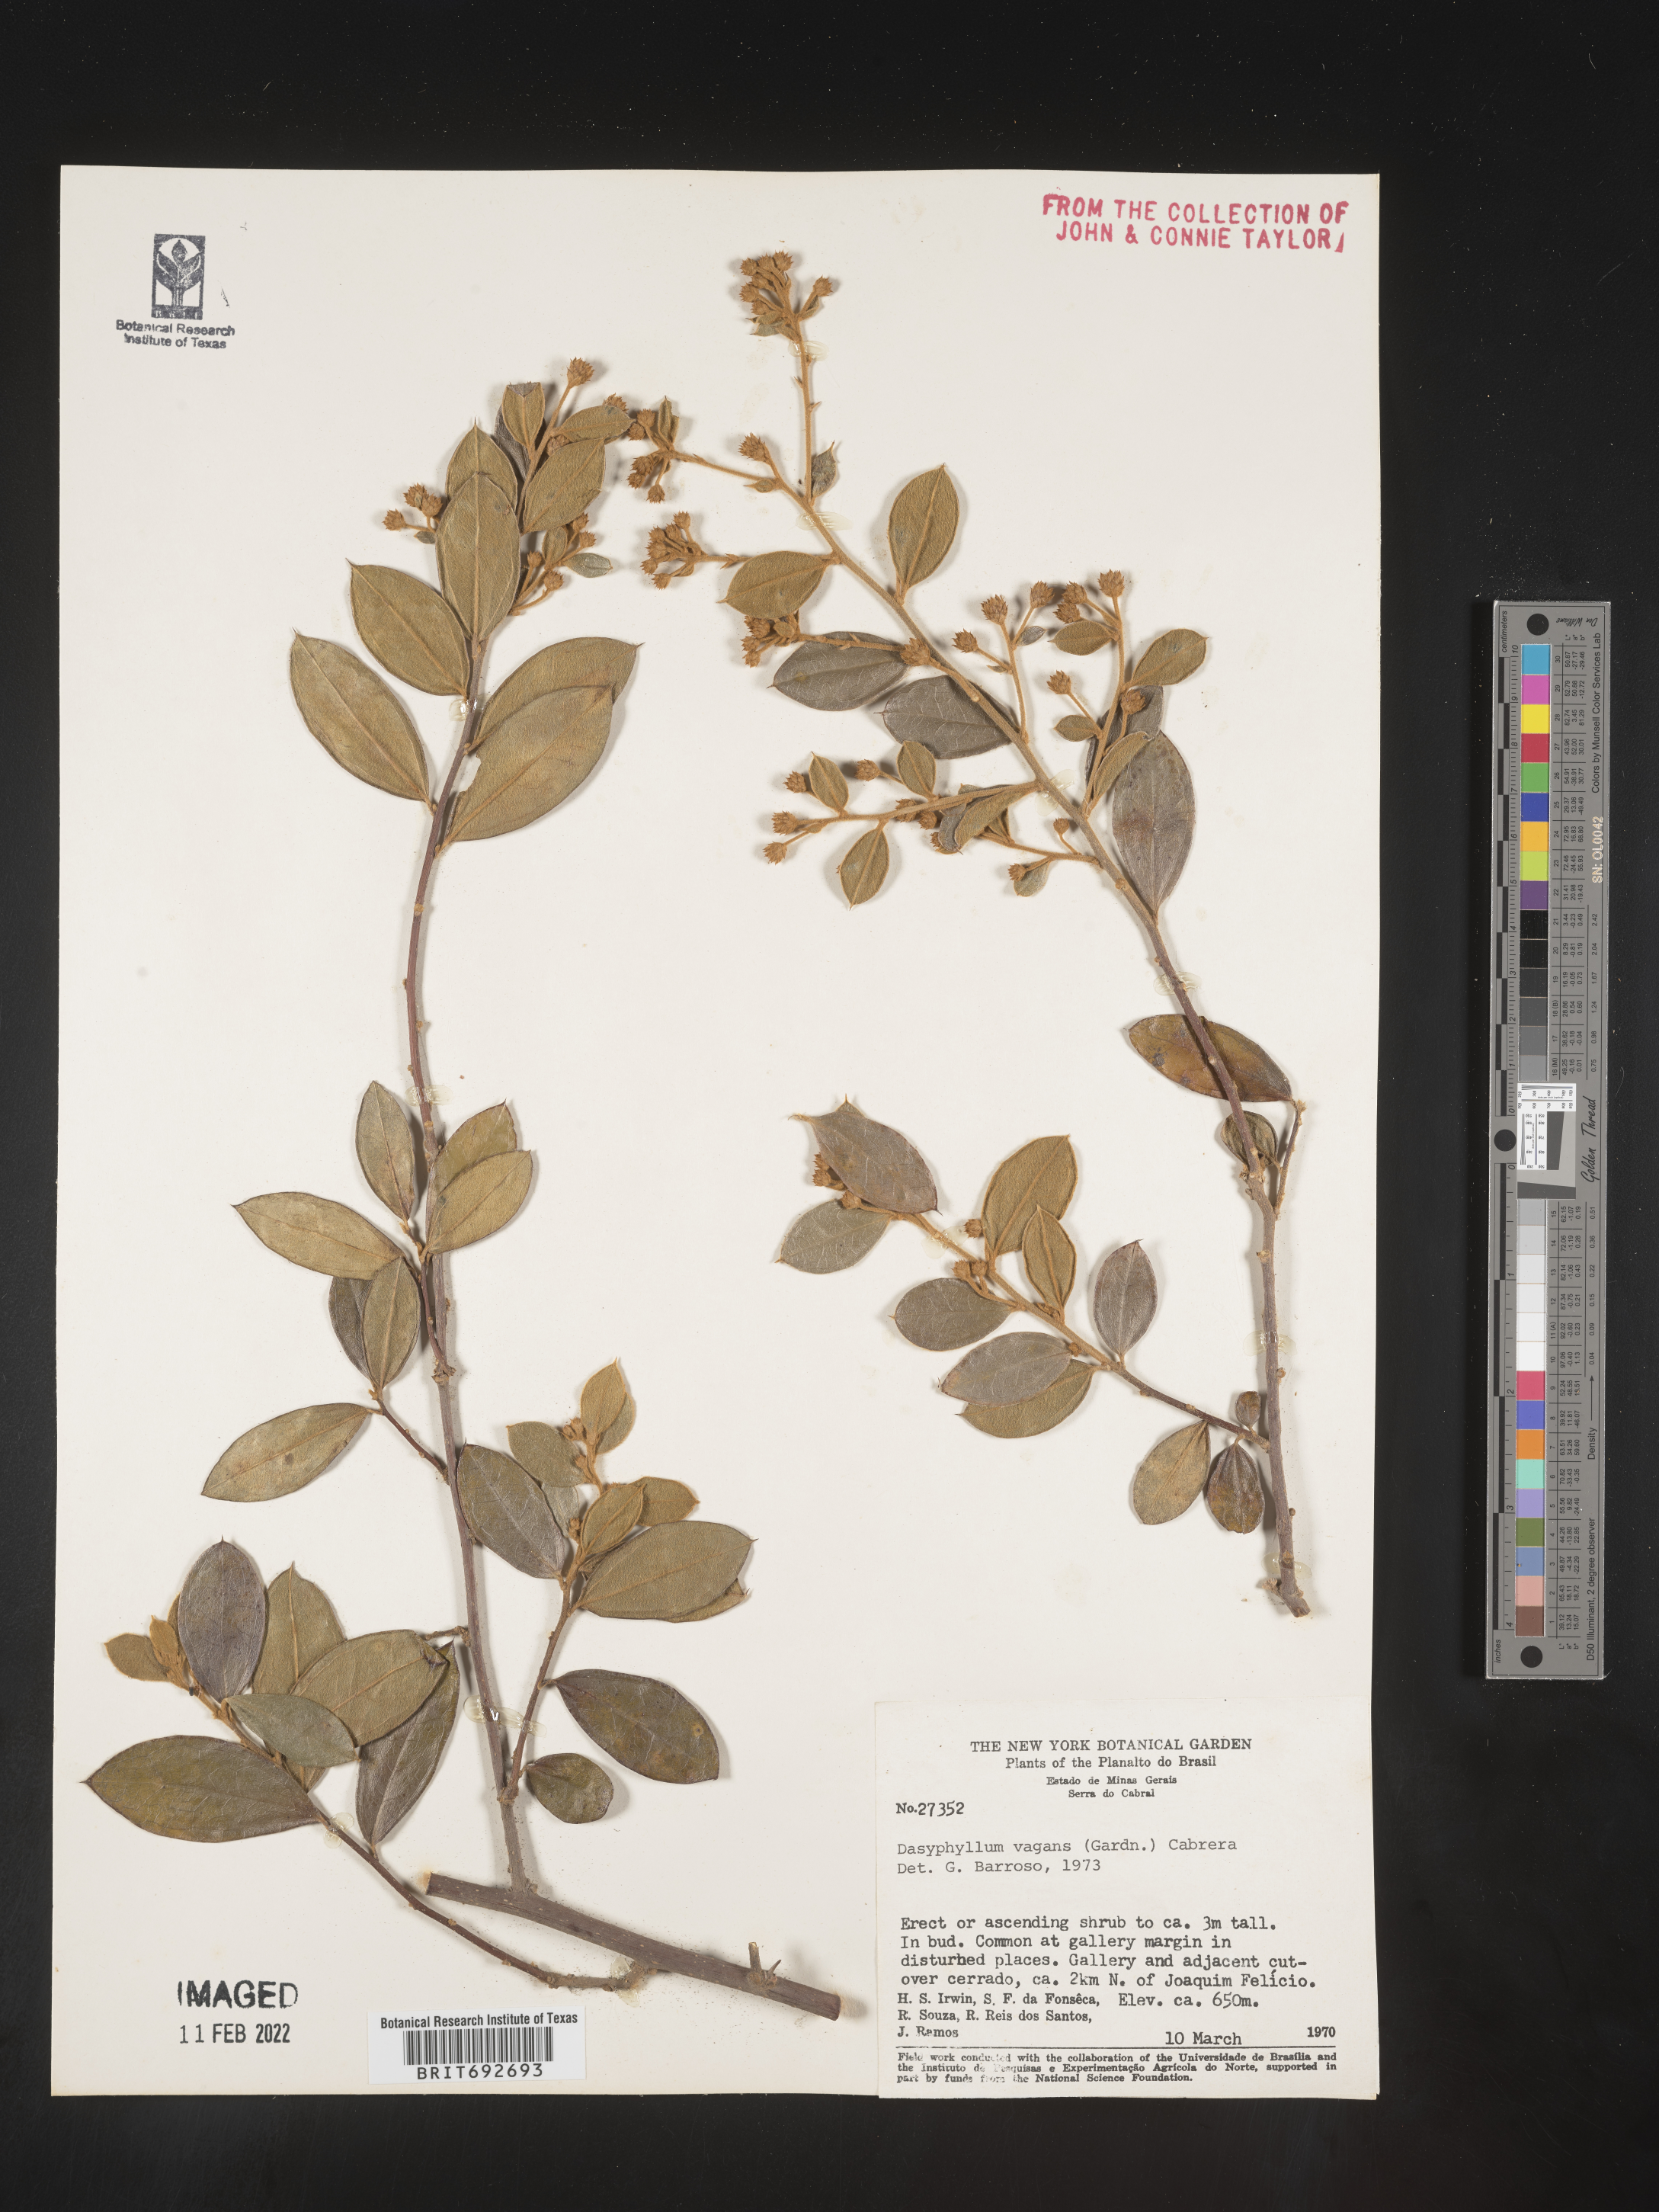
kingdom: Plantae
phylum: Tracheophyta
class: Magnoliopsida
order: Asterales
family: Asteraceae
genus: Dasyphyllum
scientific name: Dasyphyllum
